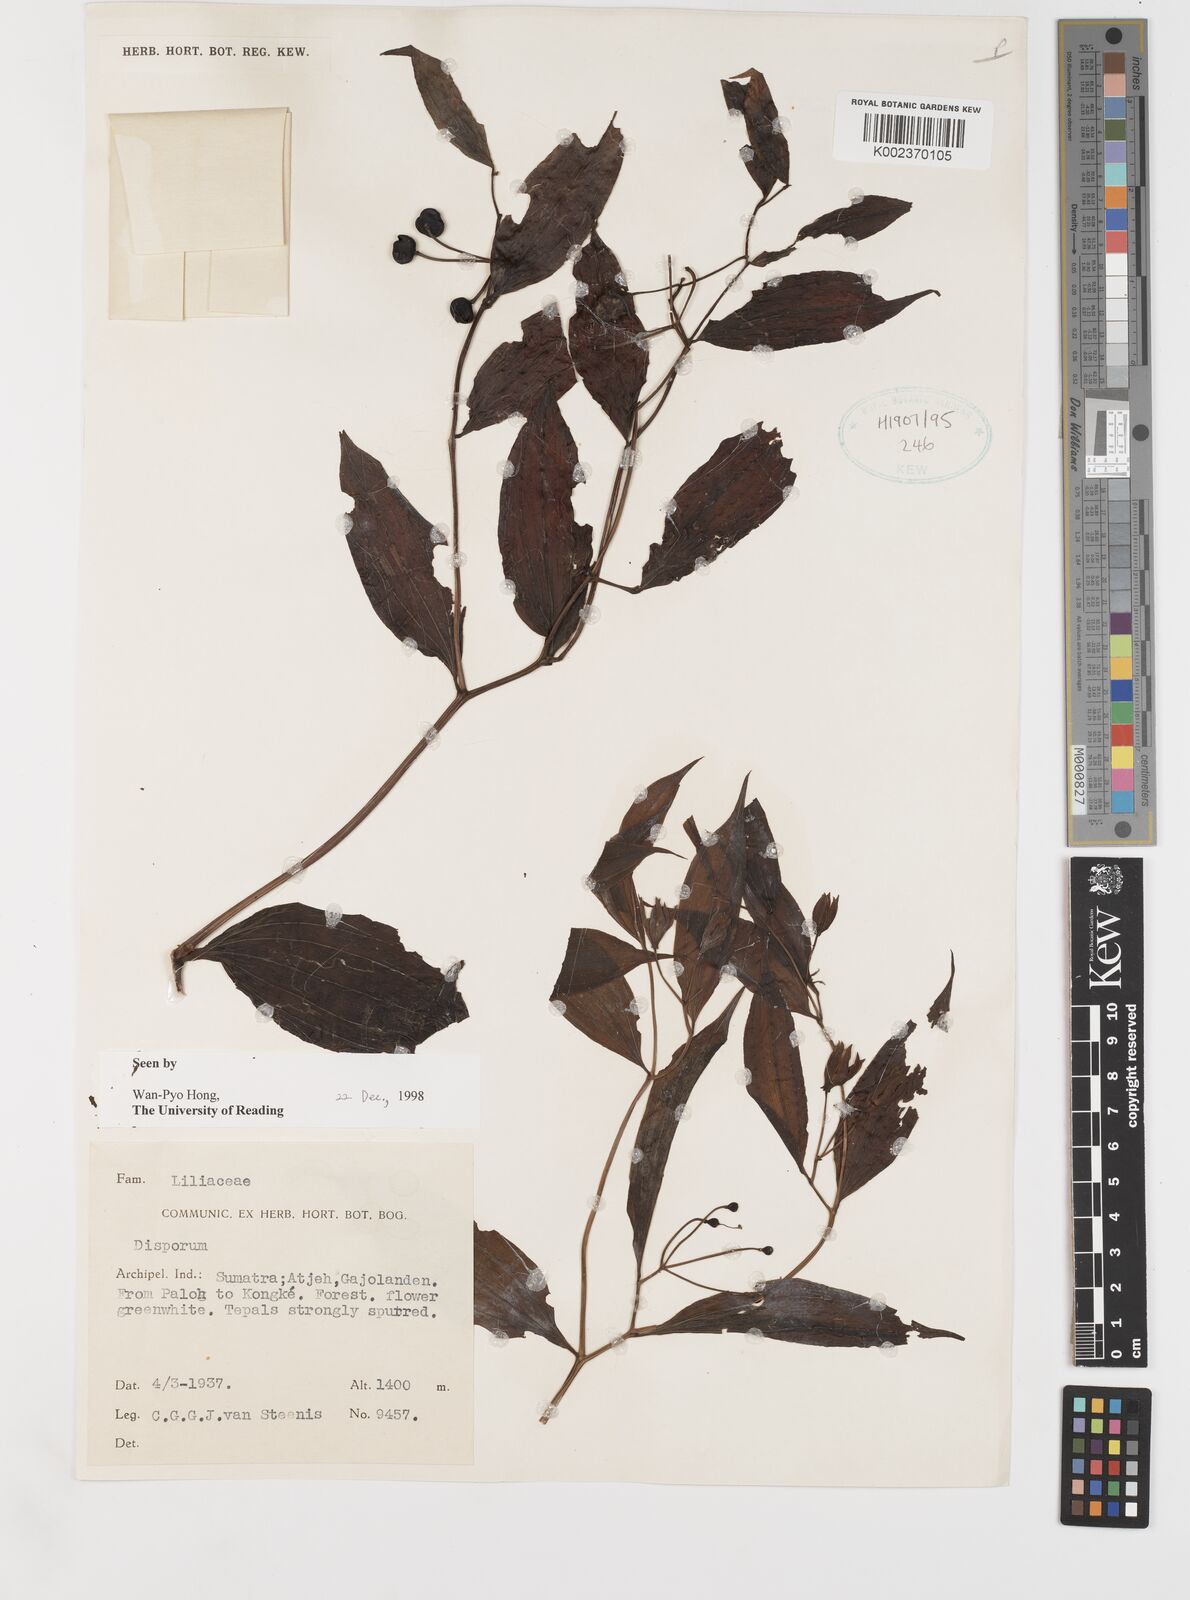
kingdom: Plantae
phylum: Tracheophyta
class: Liliopsida
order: Liliales
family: Colchicaceae
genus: Disporum
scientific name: Disporum
